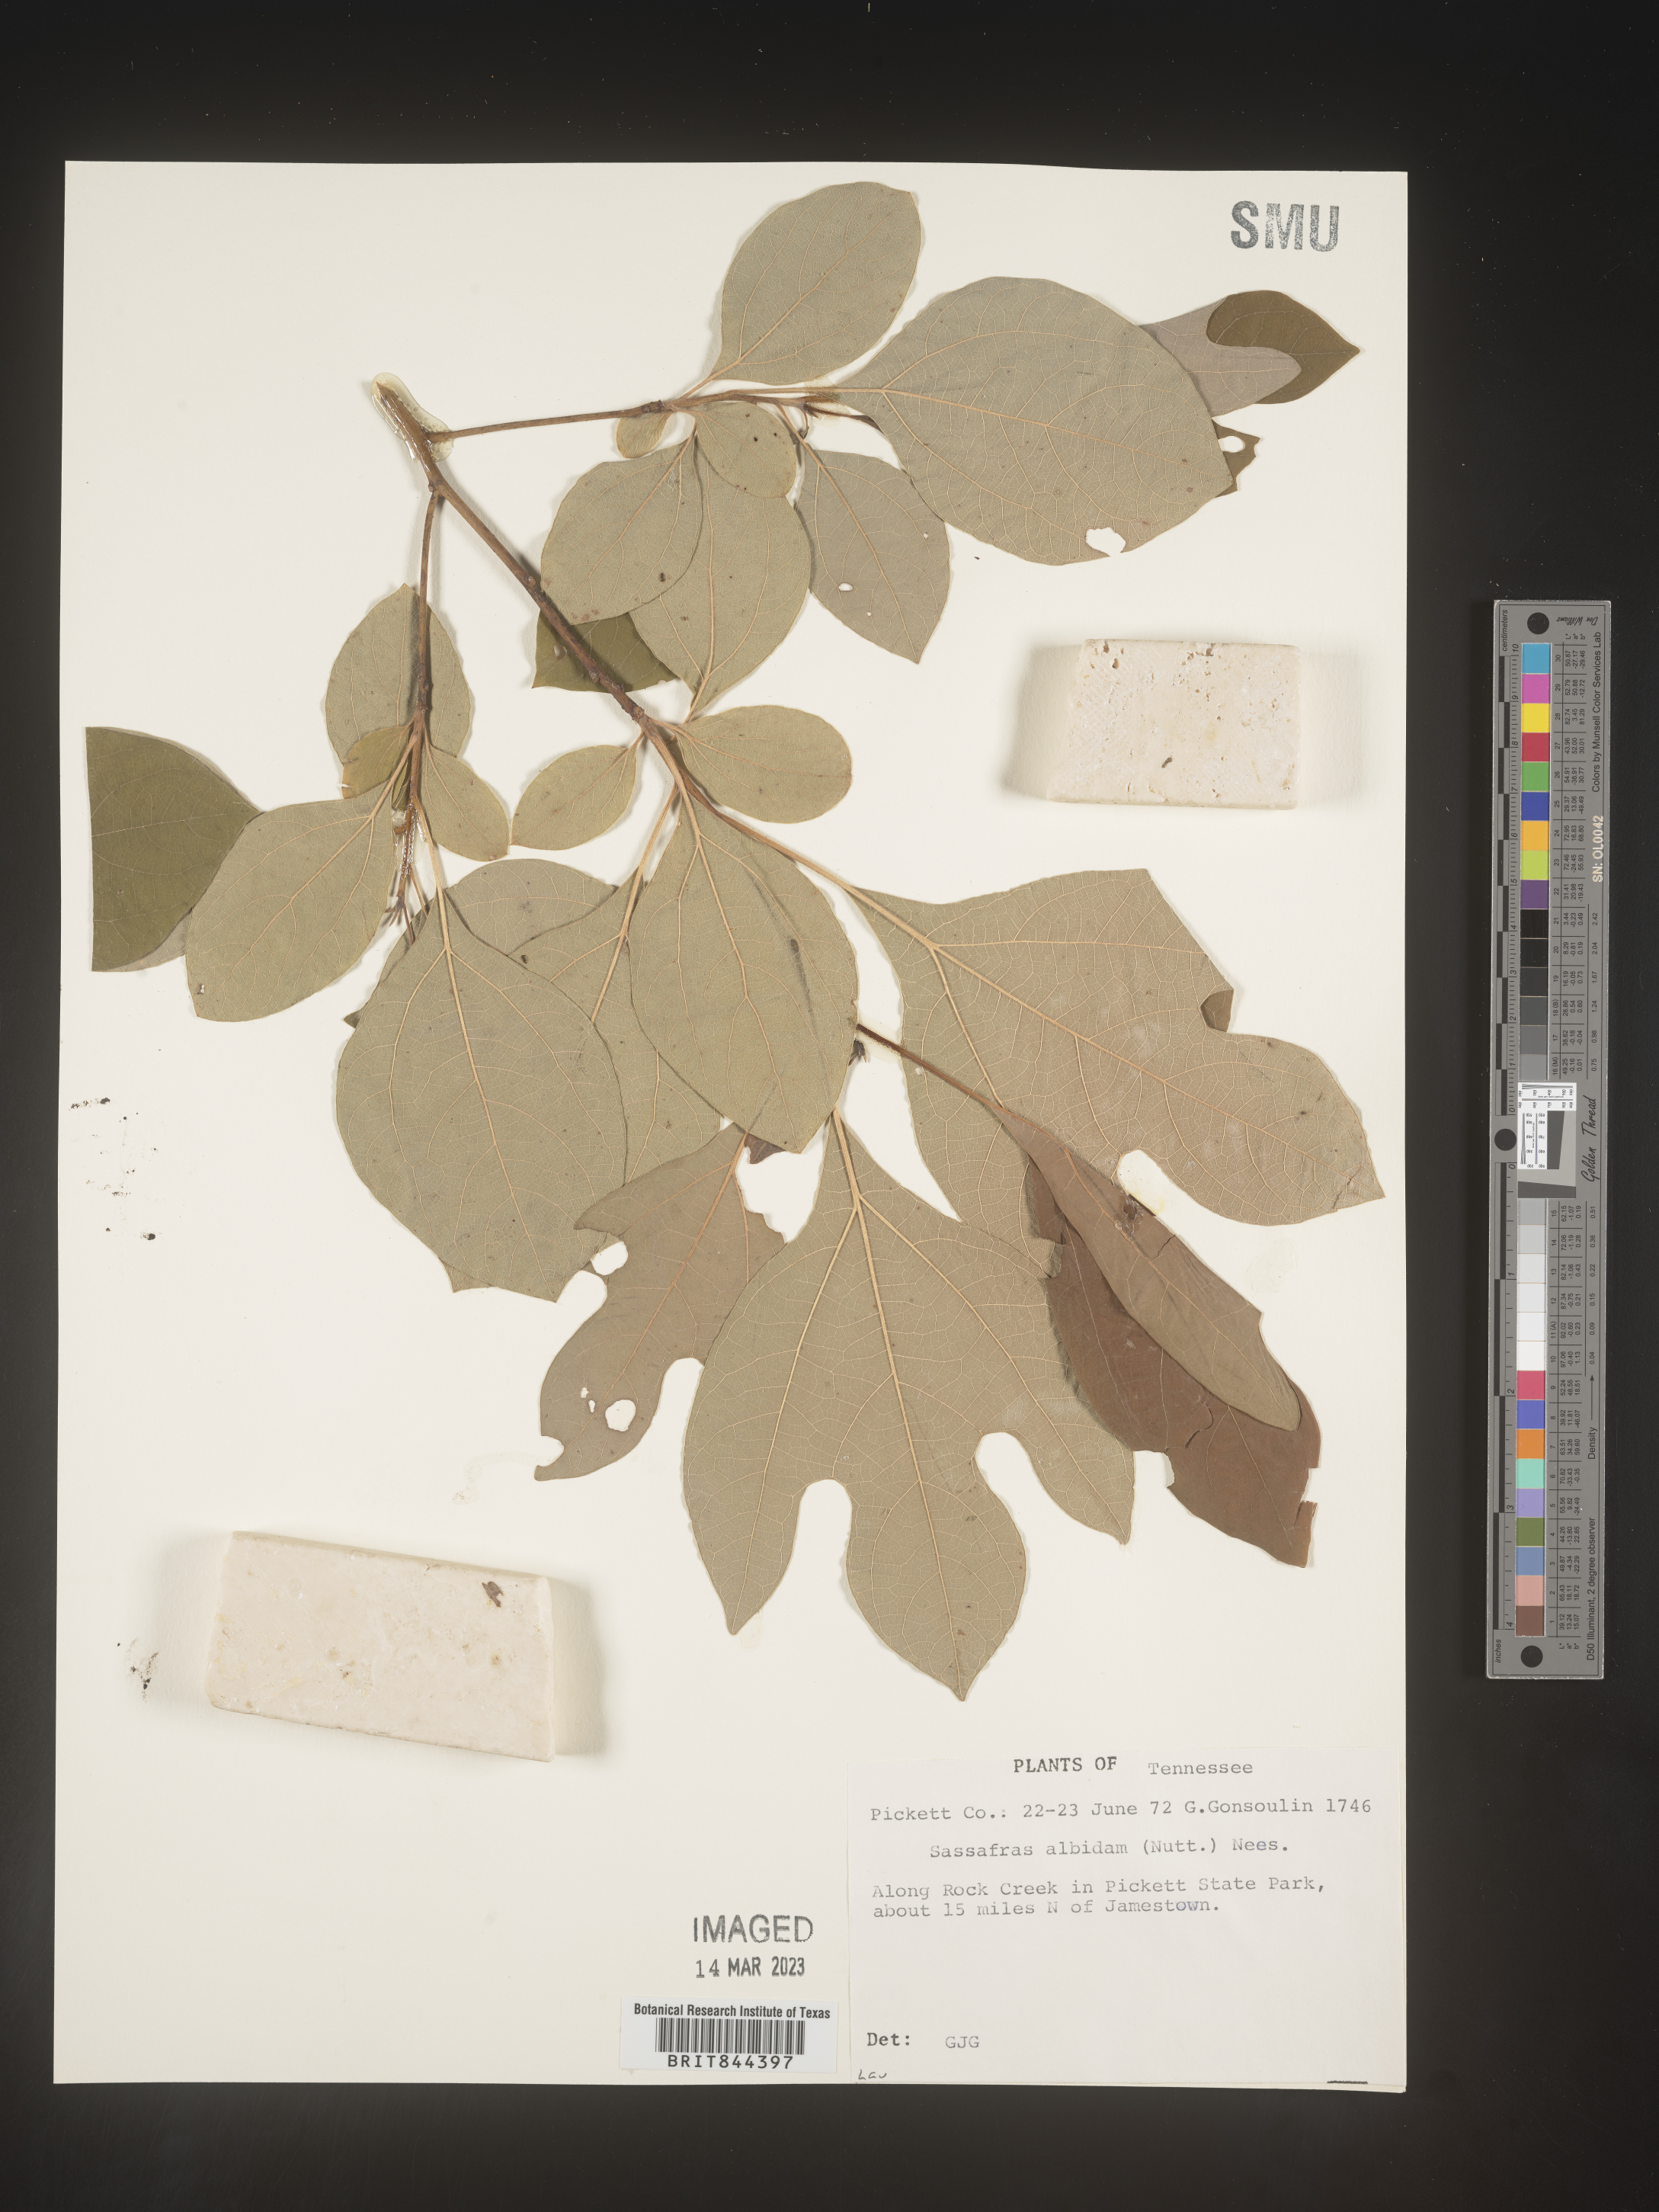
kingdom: Plantae
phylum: Tracheophyta
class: Magnoliopsida
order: Laurales
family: Lauraceae
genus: Sassafras
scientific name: Sassafras albidum
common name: Sassafras
